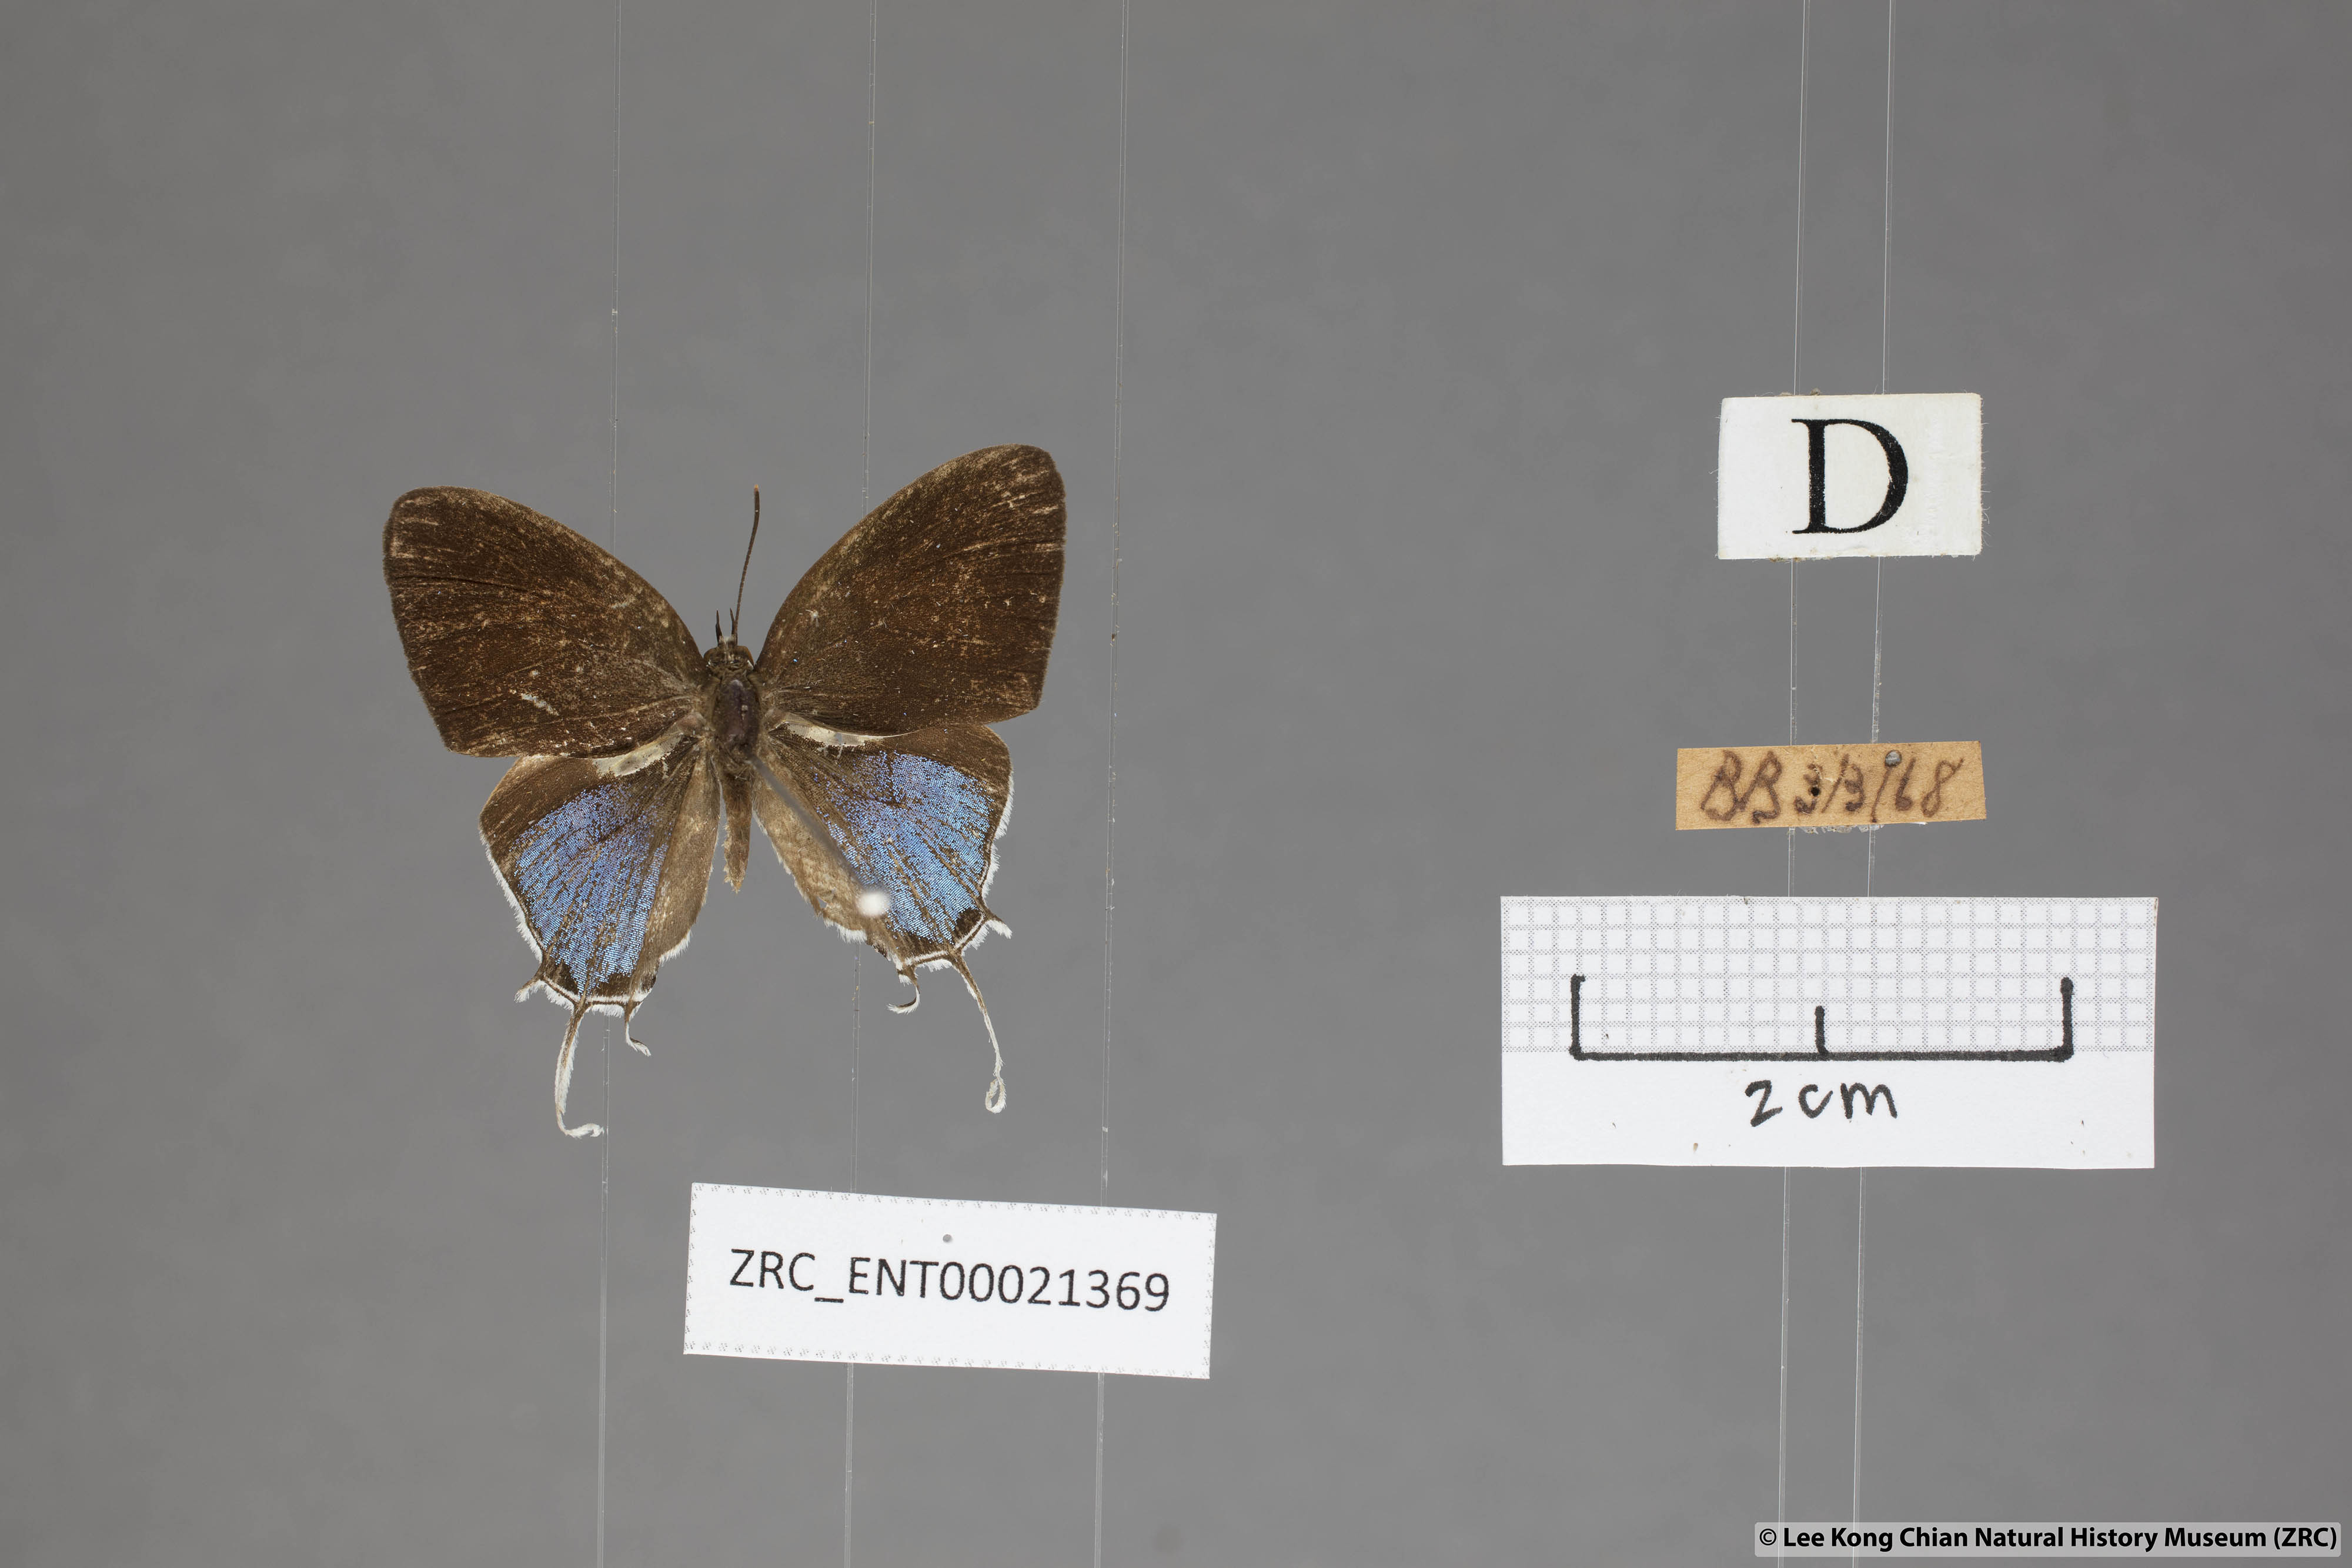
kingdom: Animalia
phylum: Arthropoda
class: Insecta
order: Lepidoptera
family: Lycaenidae
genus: Drupadia
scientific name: Drupadia ravindra
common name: Common posy
